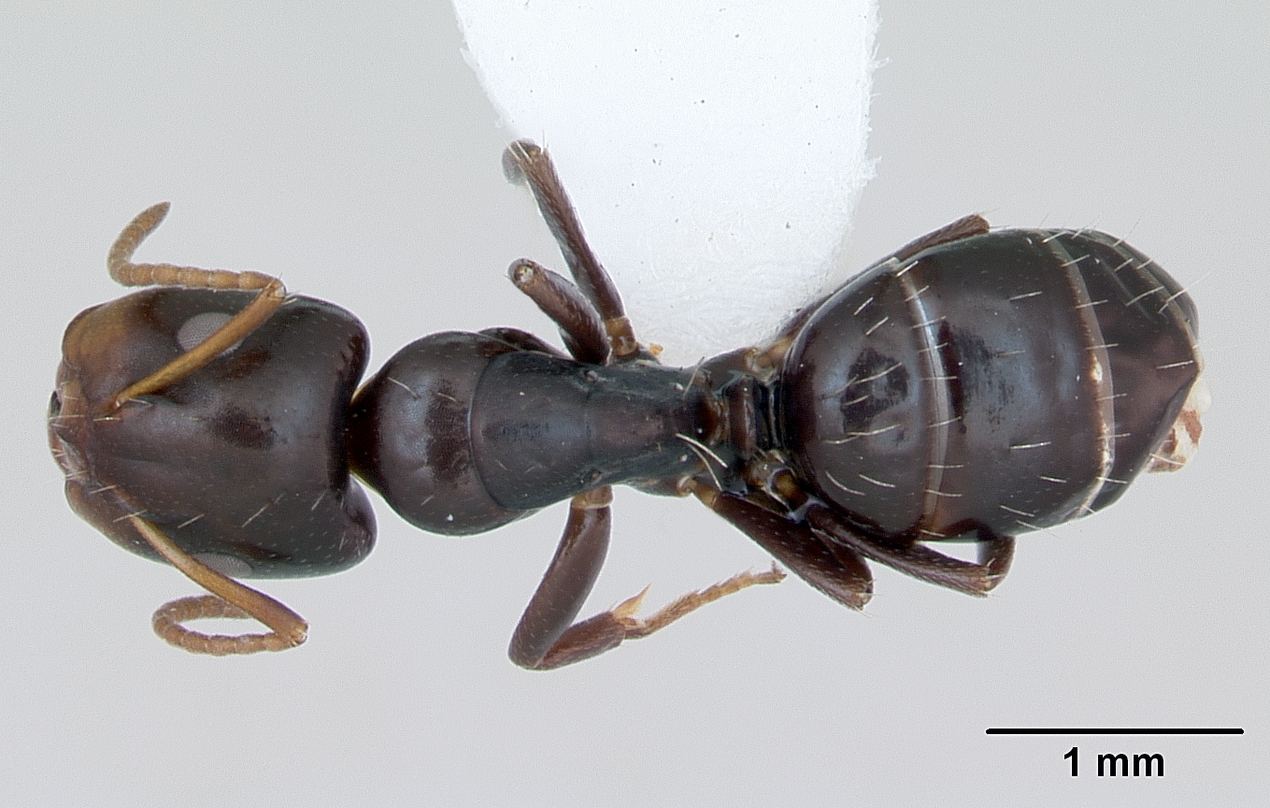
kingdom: Animalia
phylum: Arthropoda
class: Insecta
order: Hymenoptera
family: Formicidae
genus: Camponotus
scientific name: Camponotus vagulus
